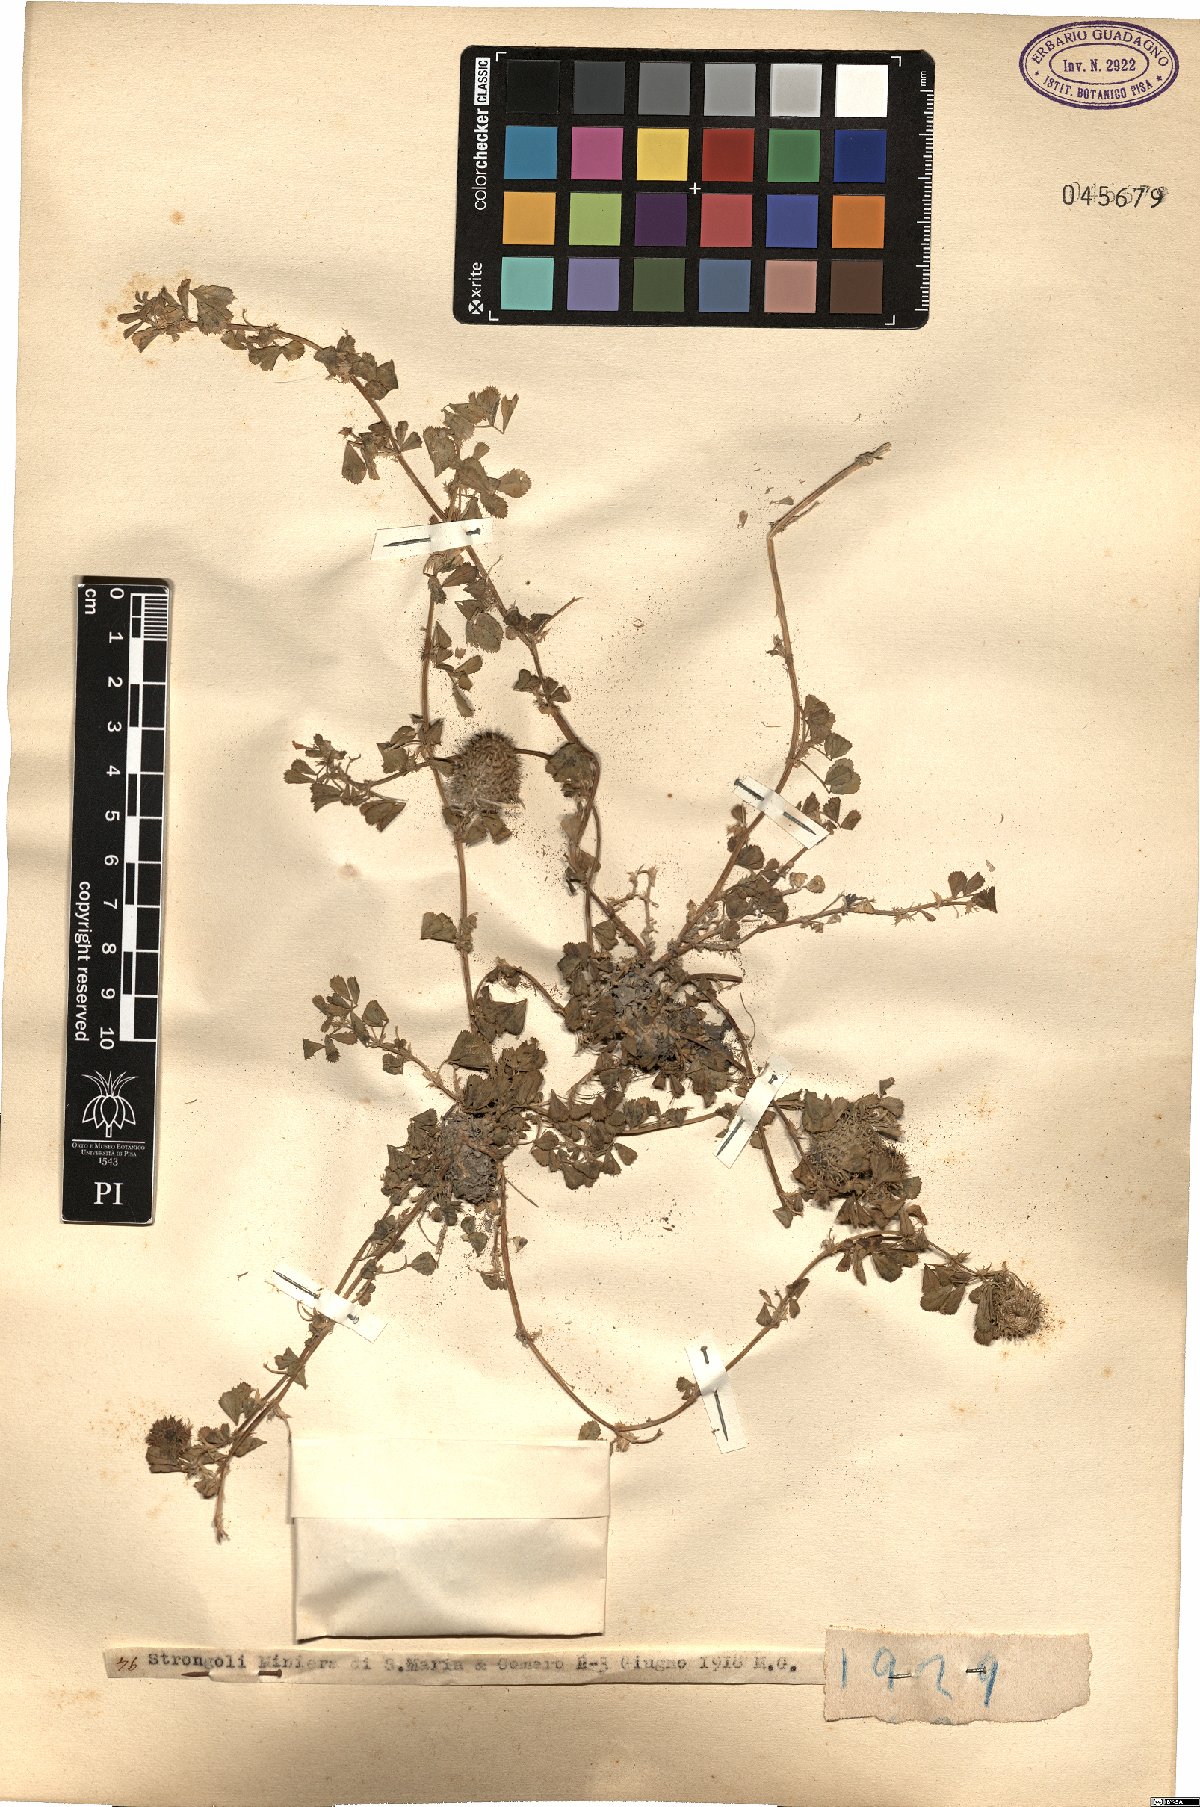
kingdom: Plantae
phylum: Tracheophyta
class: Magnoliopsida
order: Fabales
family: Fabaceae
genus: Medicago
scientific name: Medicago
